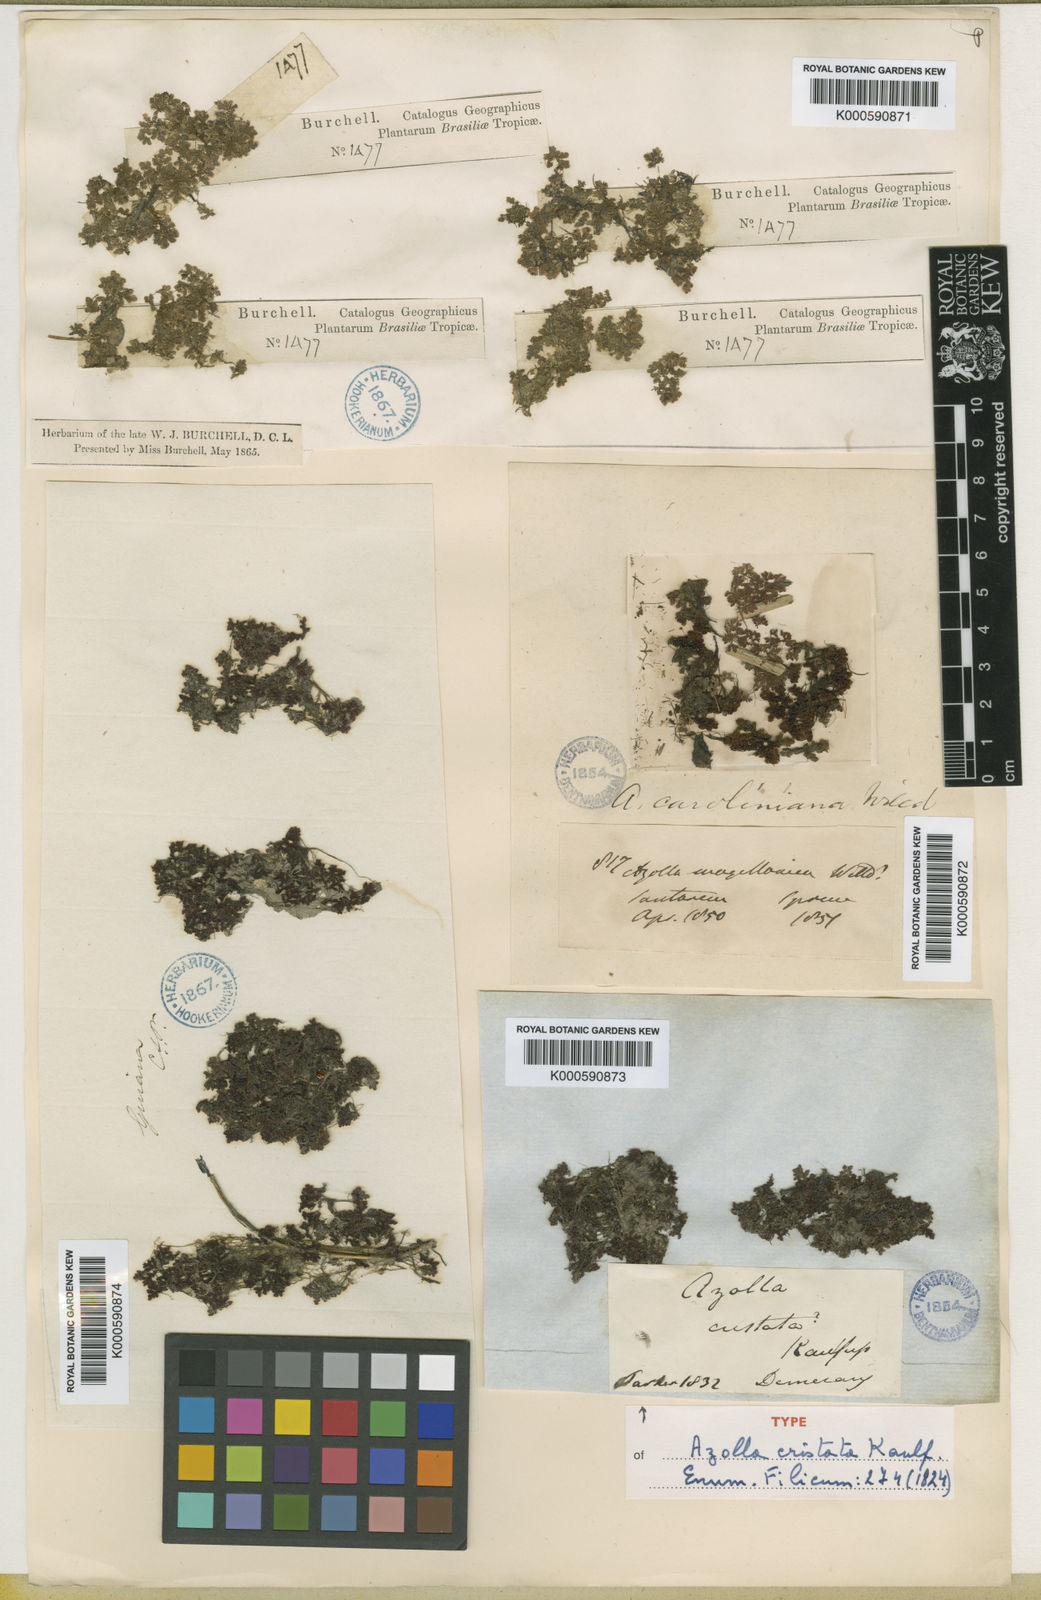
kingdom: Plantae
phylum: Tracheophyta
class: Polypodiopsida
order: Salviniales
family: Salviniaceae
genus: Azolla
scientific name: Azolla cristata
